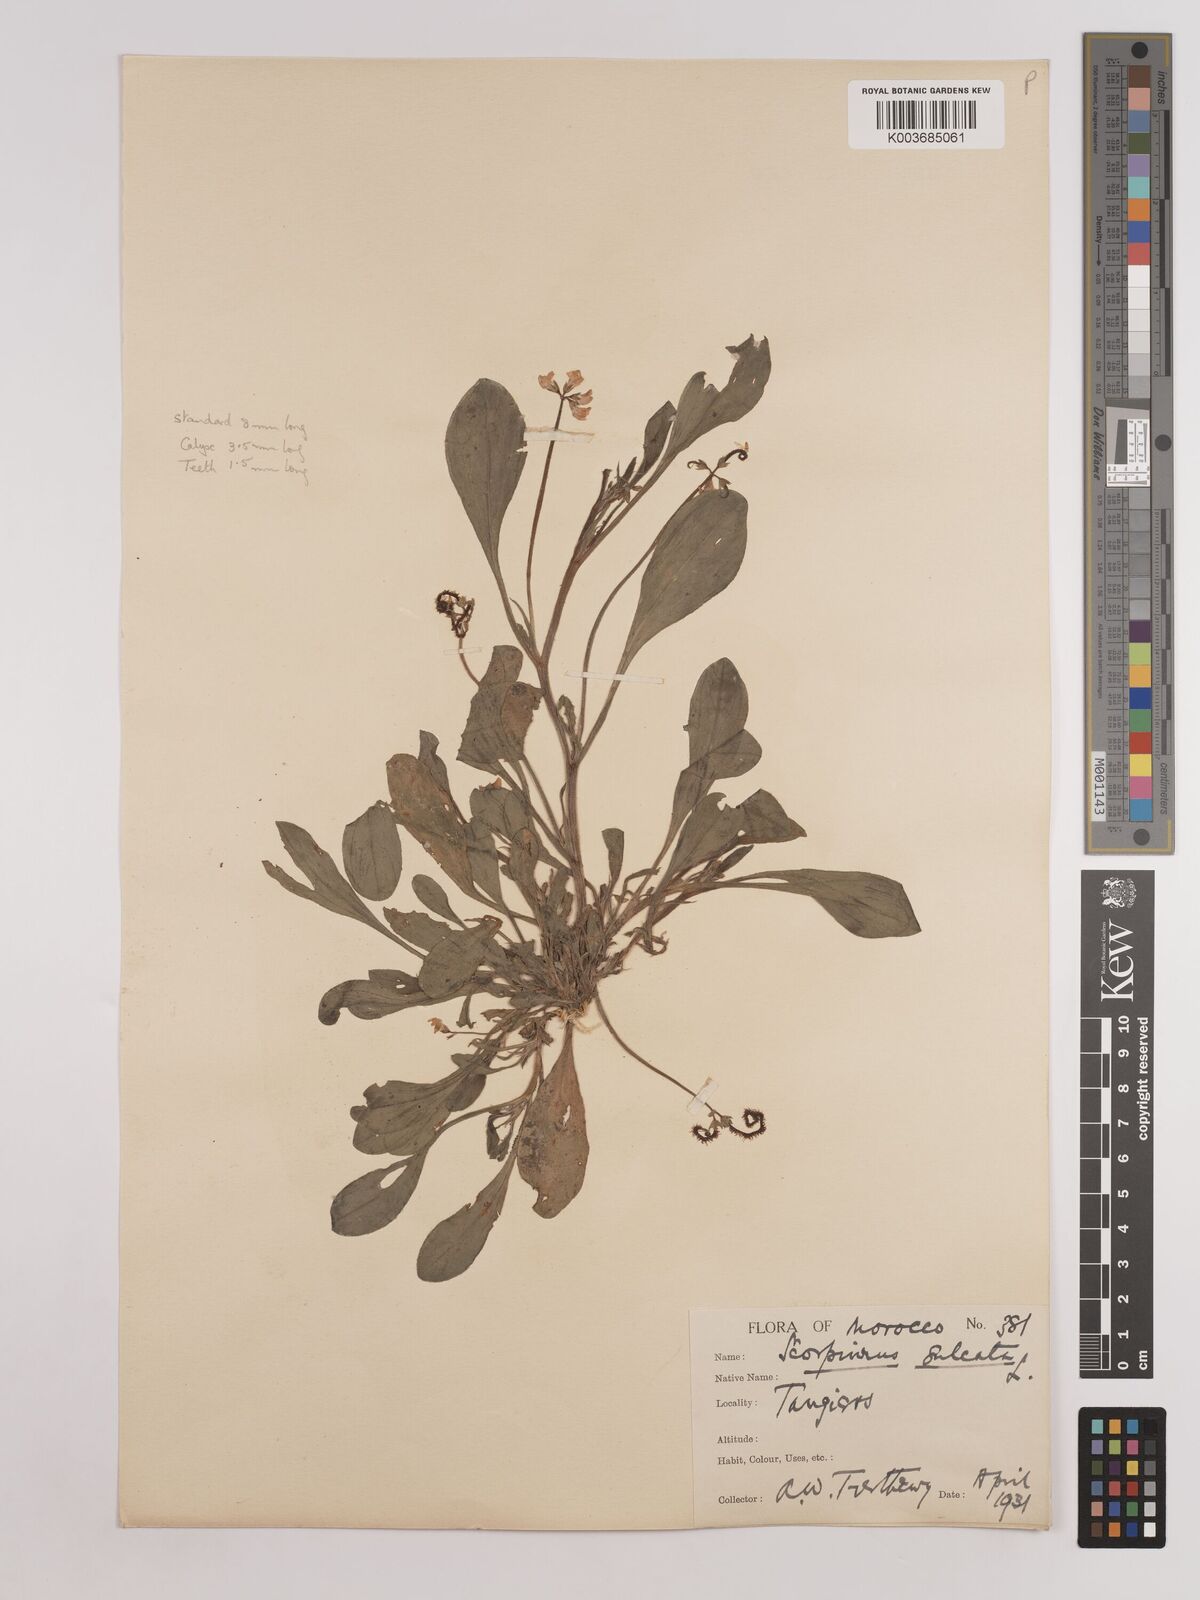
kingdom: Plantae
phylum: Tracheophyta
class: Magnoliopsida
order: Fabales
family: Fabaceae
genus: Scorpiurus
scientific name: Scorpiurus muricatus
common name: Caterpillar-plant
